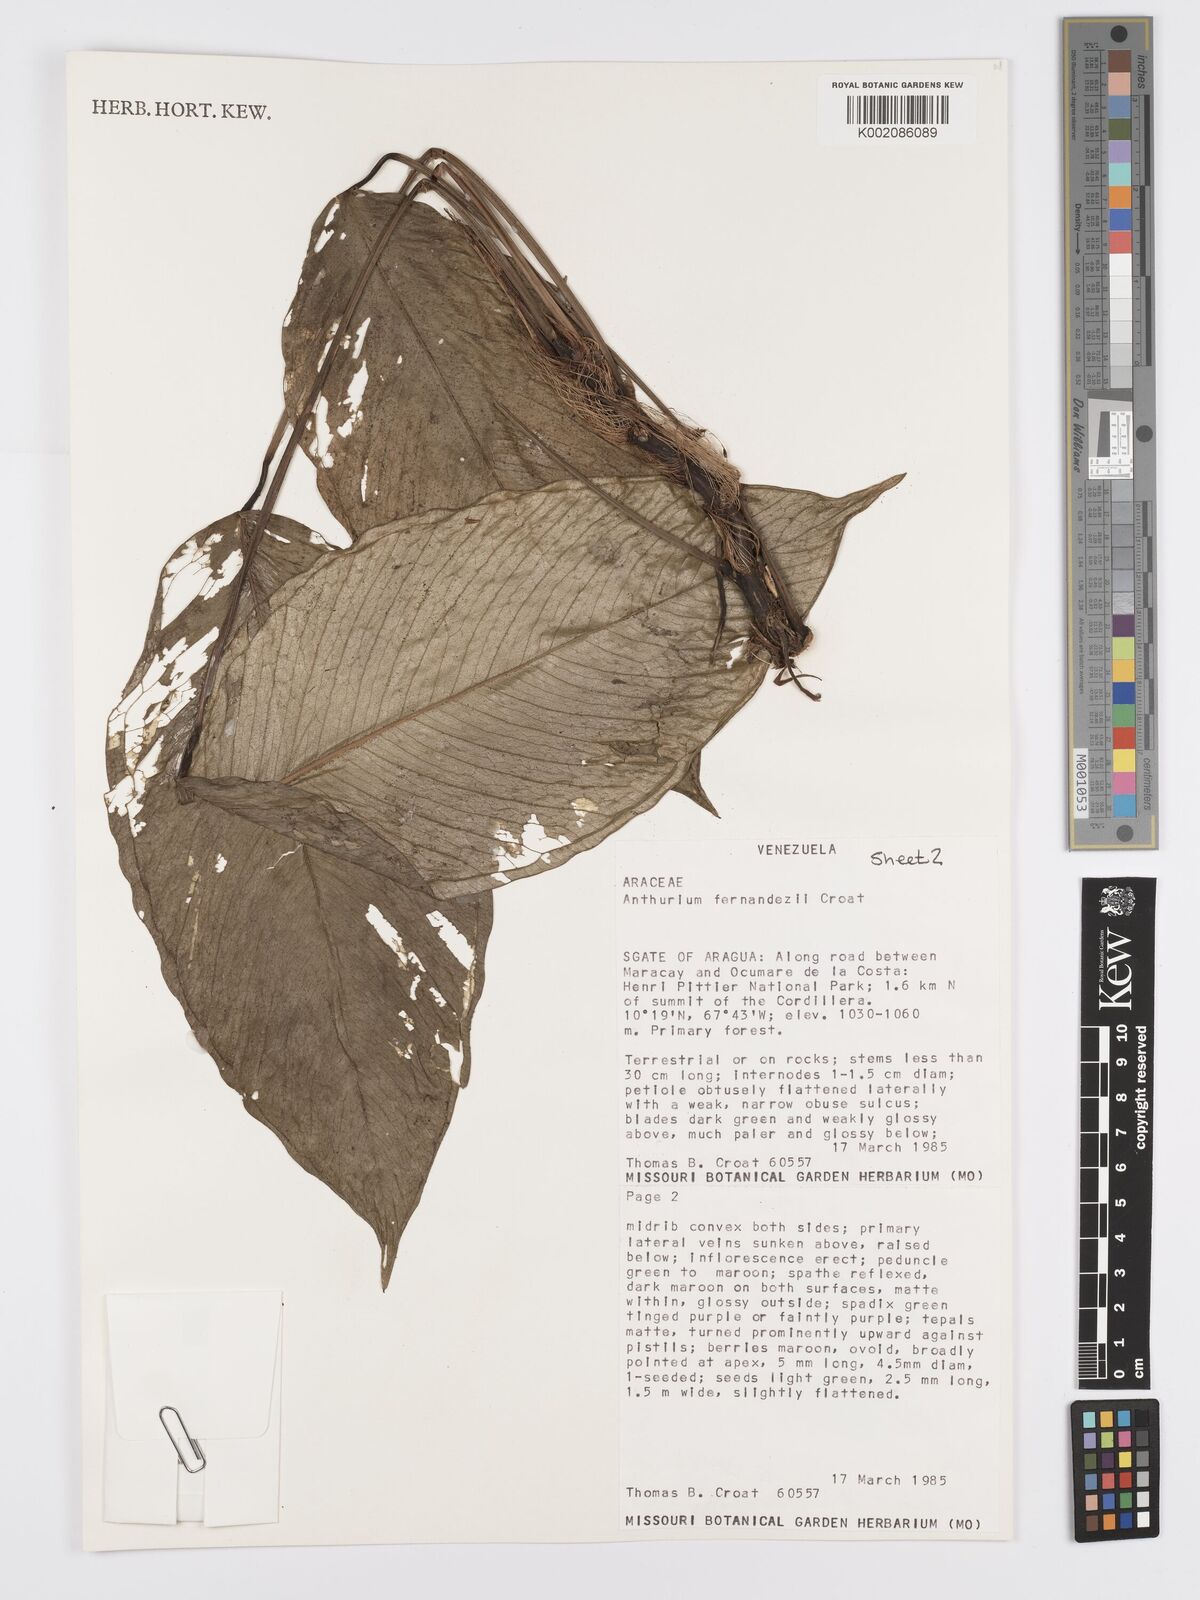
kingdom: Plantae
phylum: Tracheophyta
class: Liliopsida
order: Alismatales
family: Araceae
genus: Anthurium
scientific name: Anthurium fernandezii
